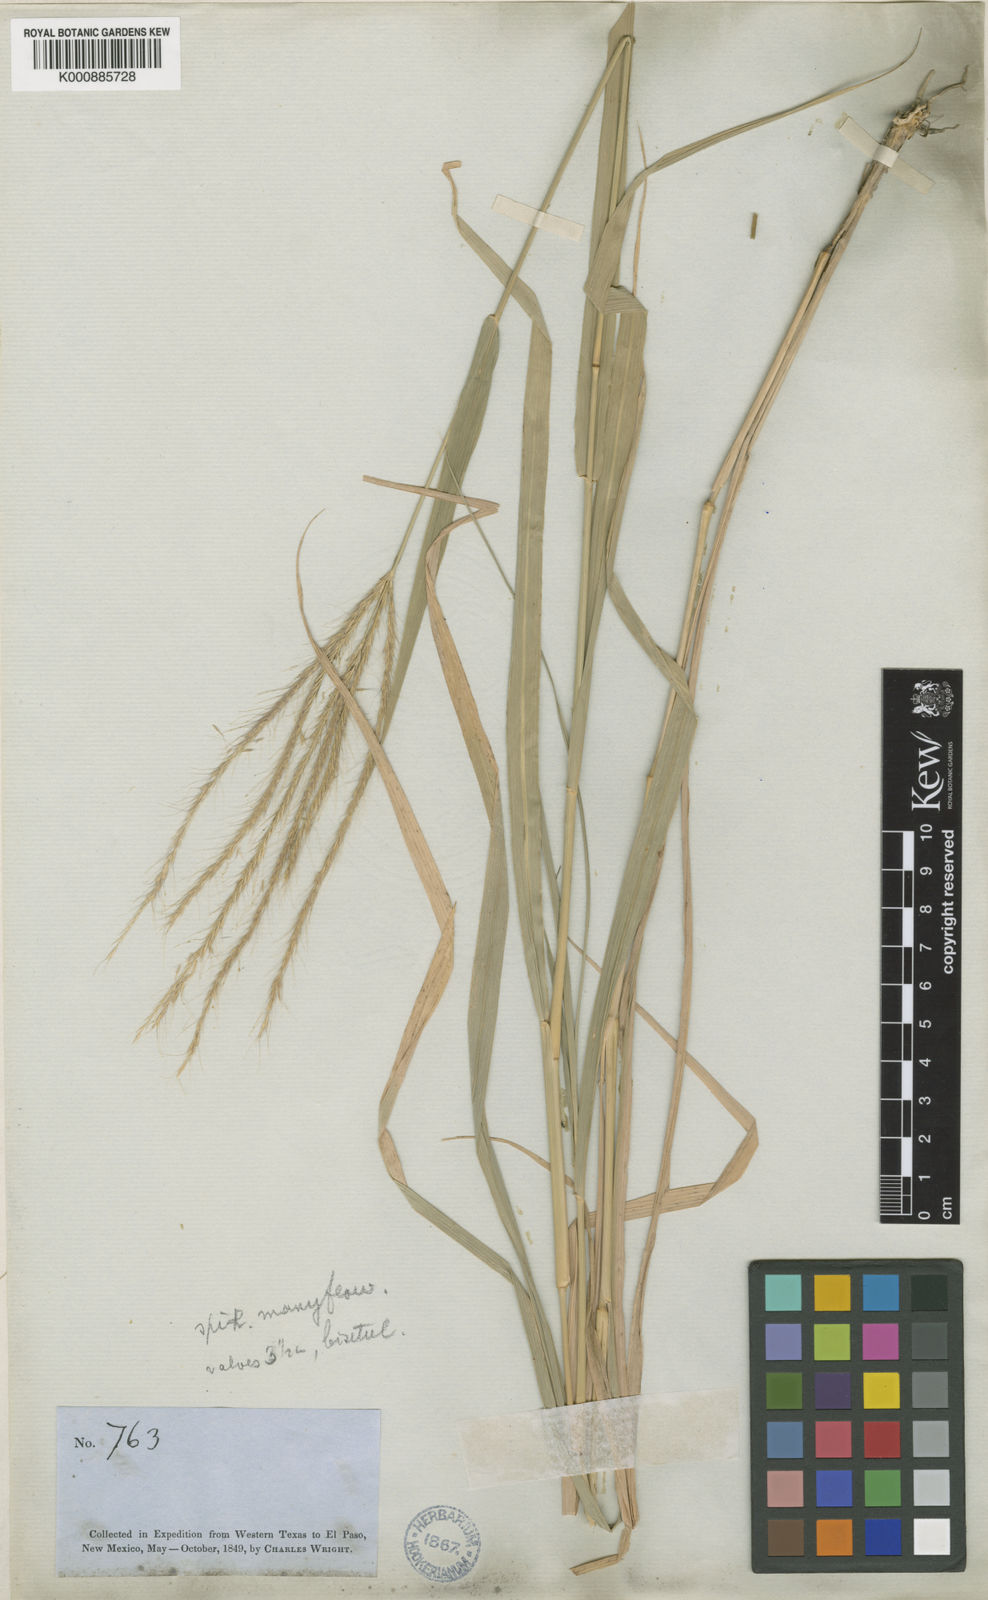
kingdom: Plantae
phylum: Tracheophyta
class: Liliopsida
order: Poales
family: Poaceae
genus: Leptochloa
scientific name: Leptochloa pluriflora
